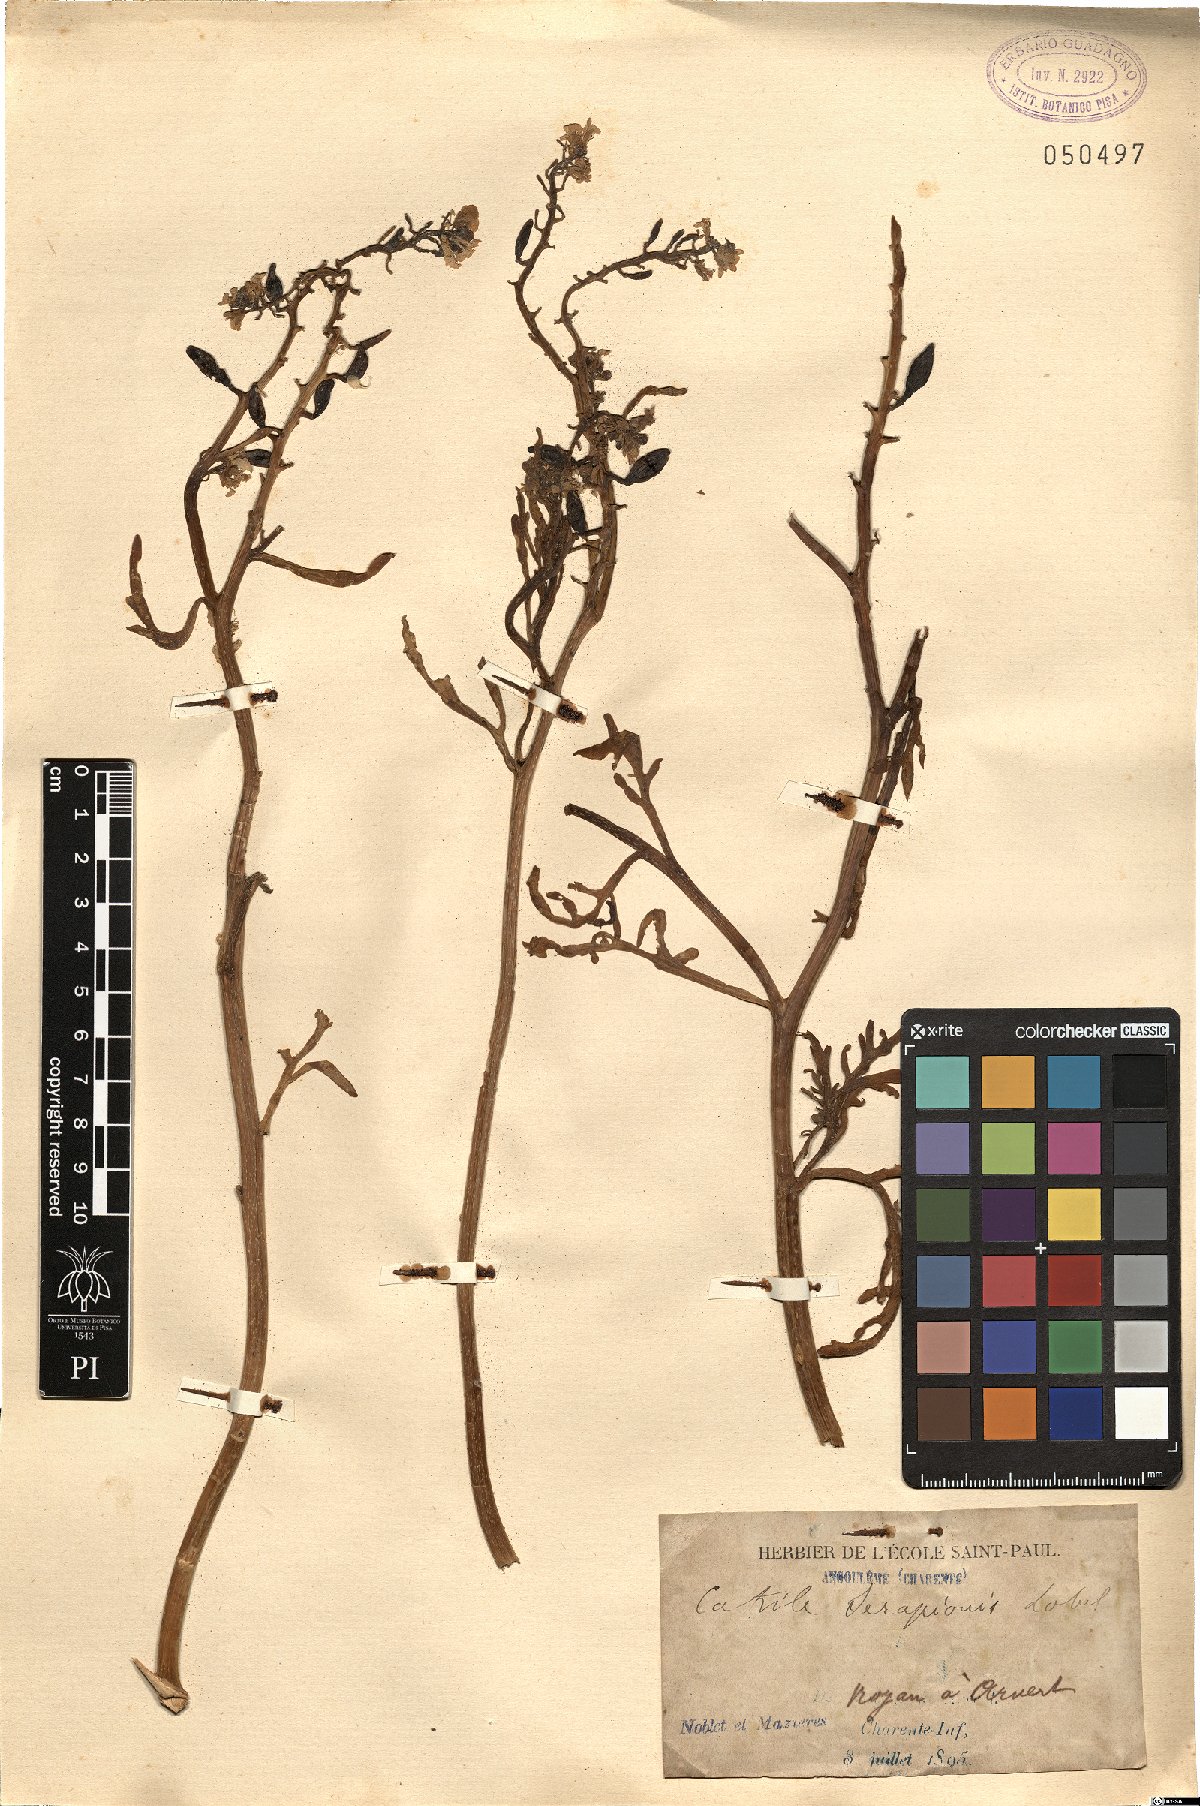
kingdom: Plantae
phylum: Tracheophyta
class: Magnoliopsida
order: Brassicales
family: Brassicaceae
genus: Cakile
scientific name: Cakile maritima
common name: Sea rocket
